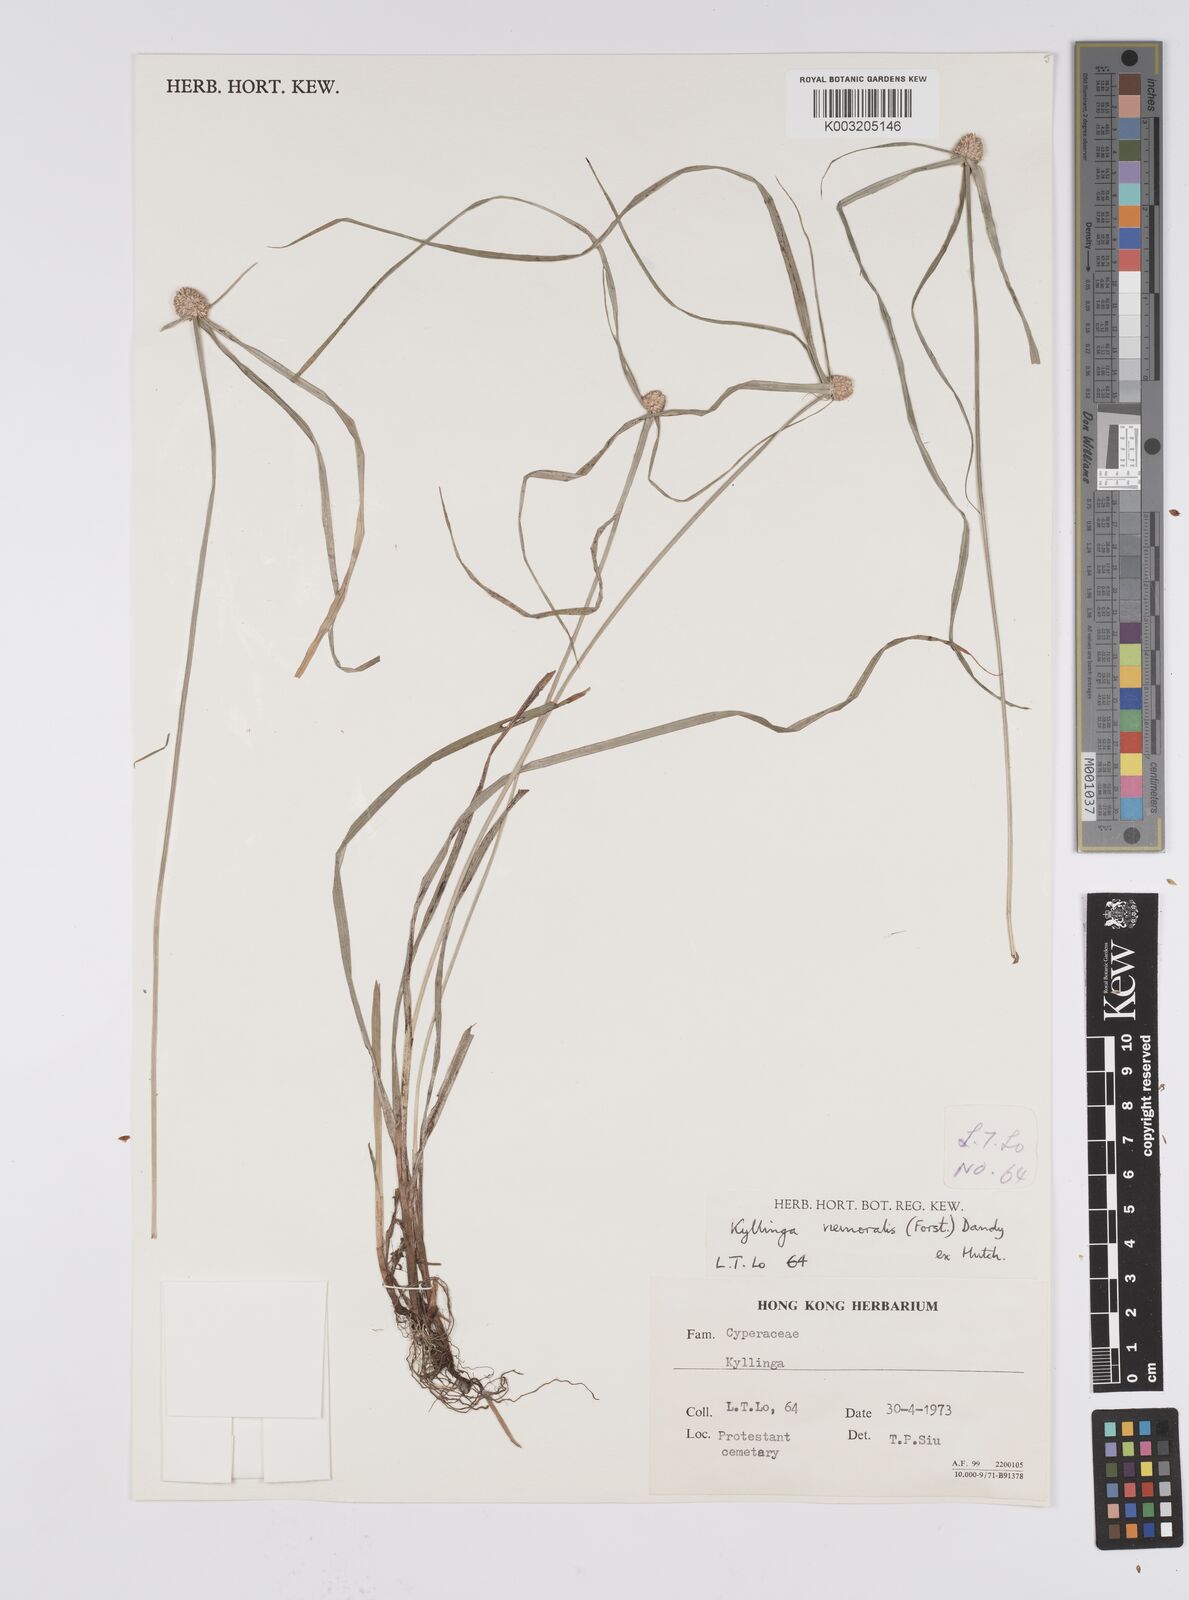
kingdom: Plantae
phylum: Tracheophyta
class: Liliopsida
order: Poales
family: Cyperaceae
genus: Cyperus
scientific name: Cyperus nemoralis
